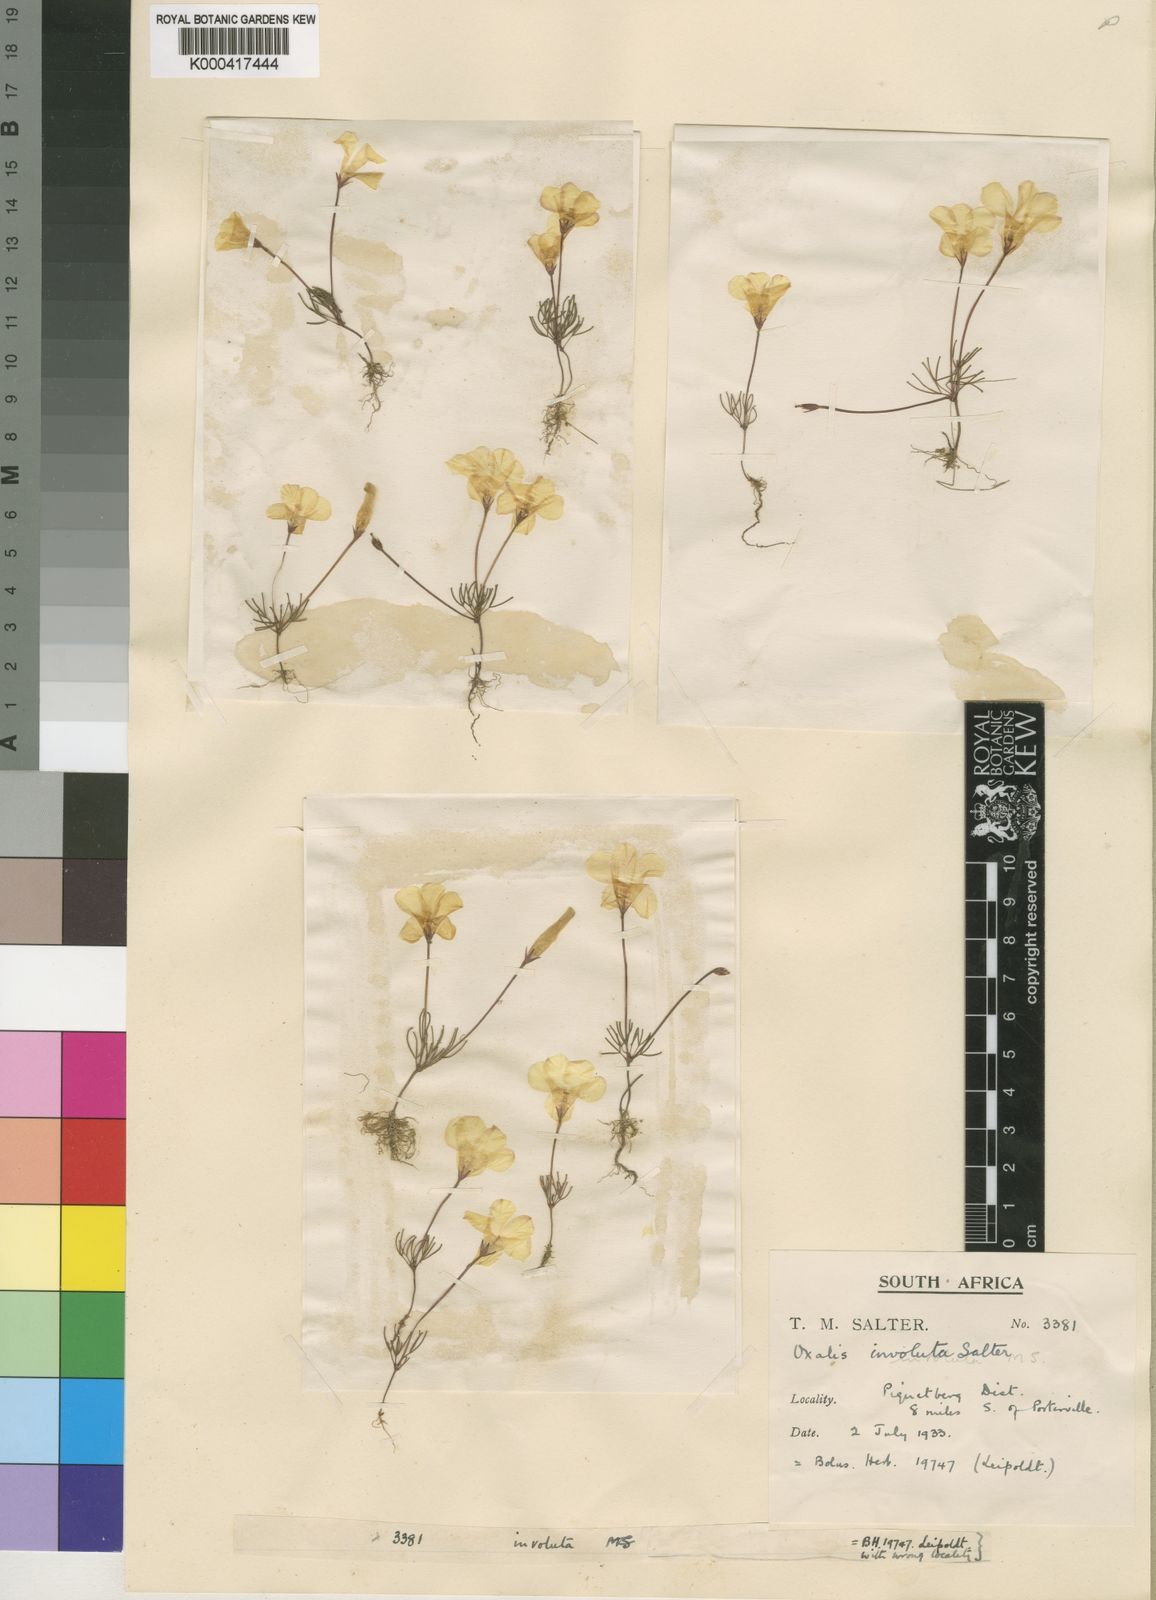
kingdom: Plantae
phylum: Tracheophyta
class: Magnoliopsida
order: Oxalidales
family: Oxalidaceae
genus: Oxalis
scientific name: Oxalis involuta
